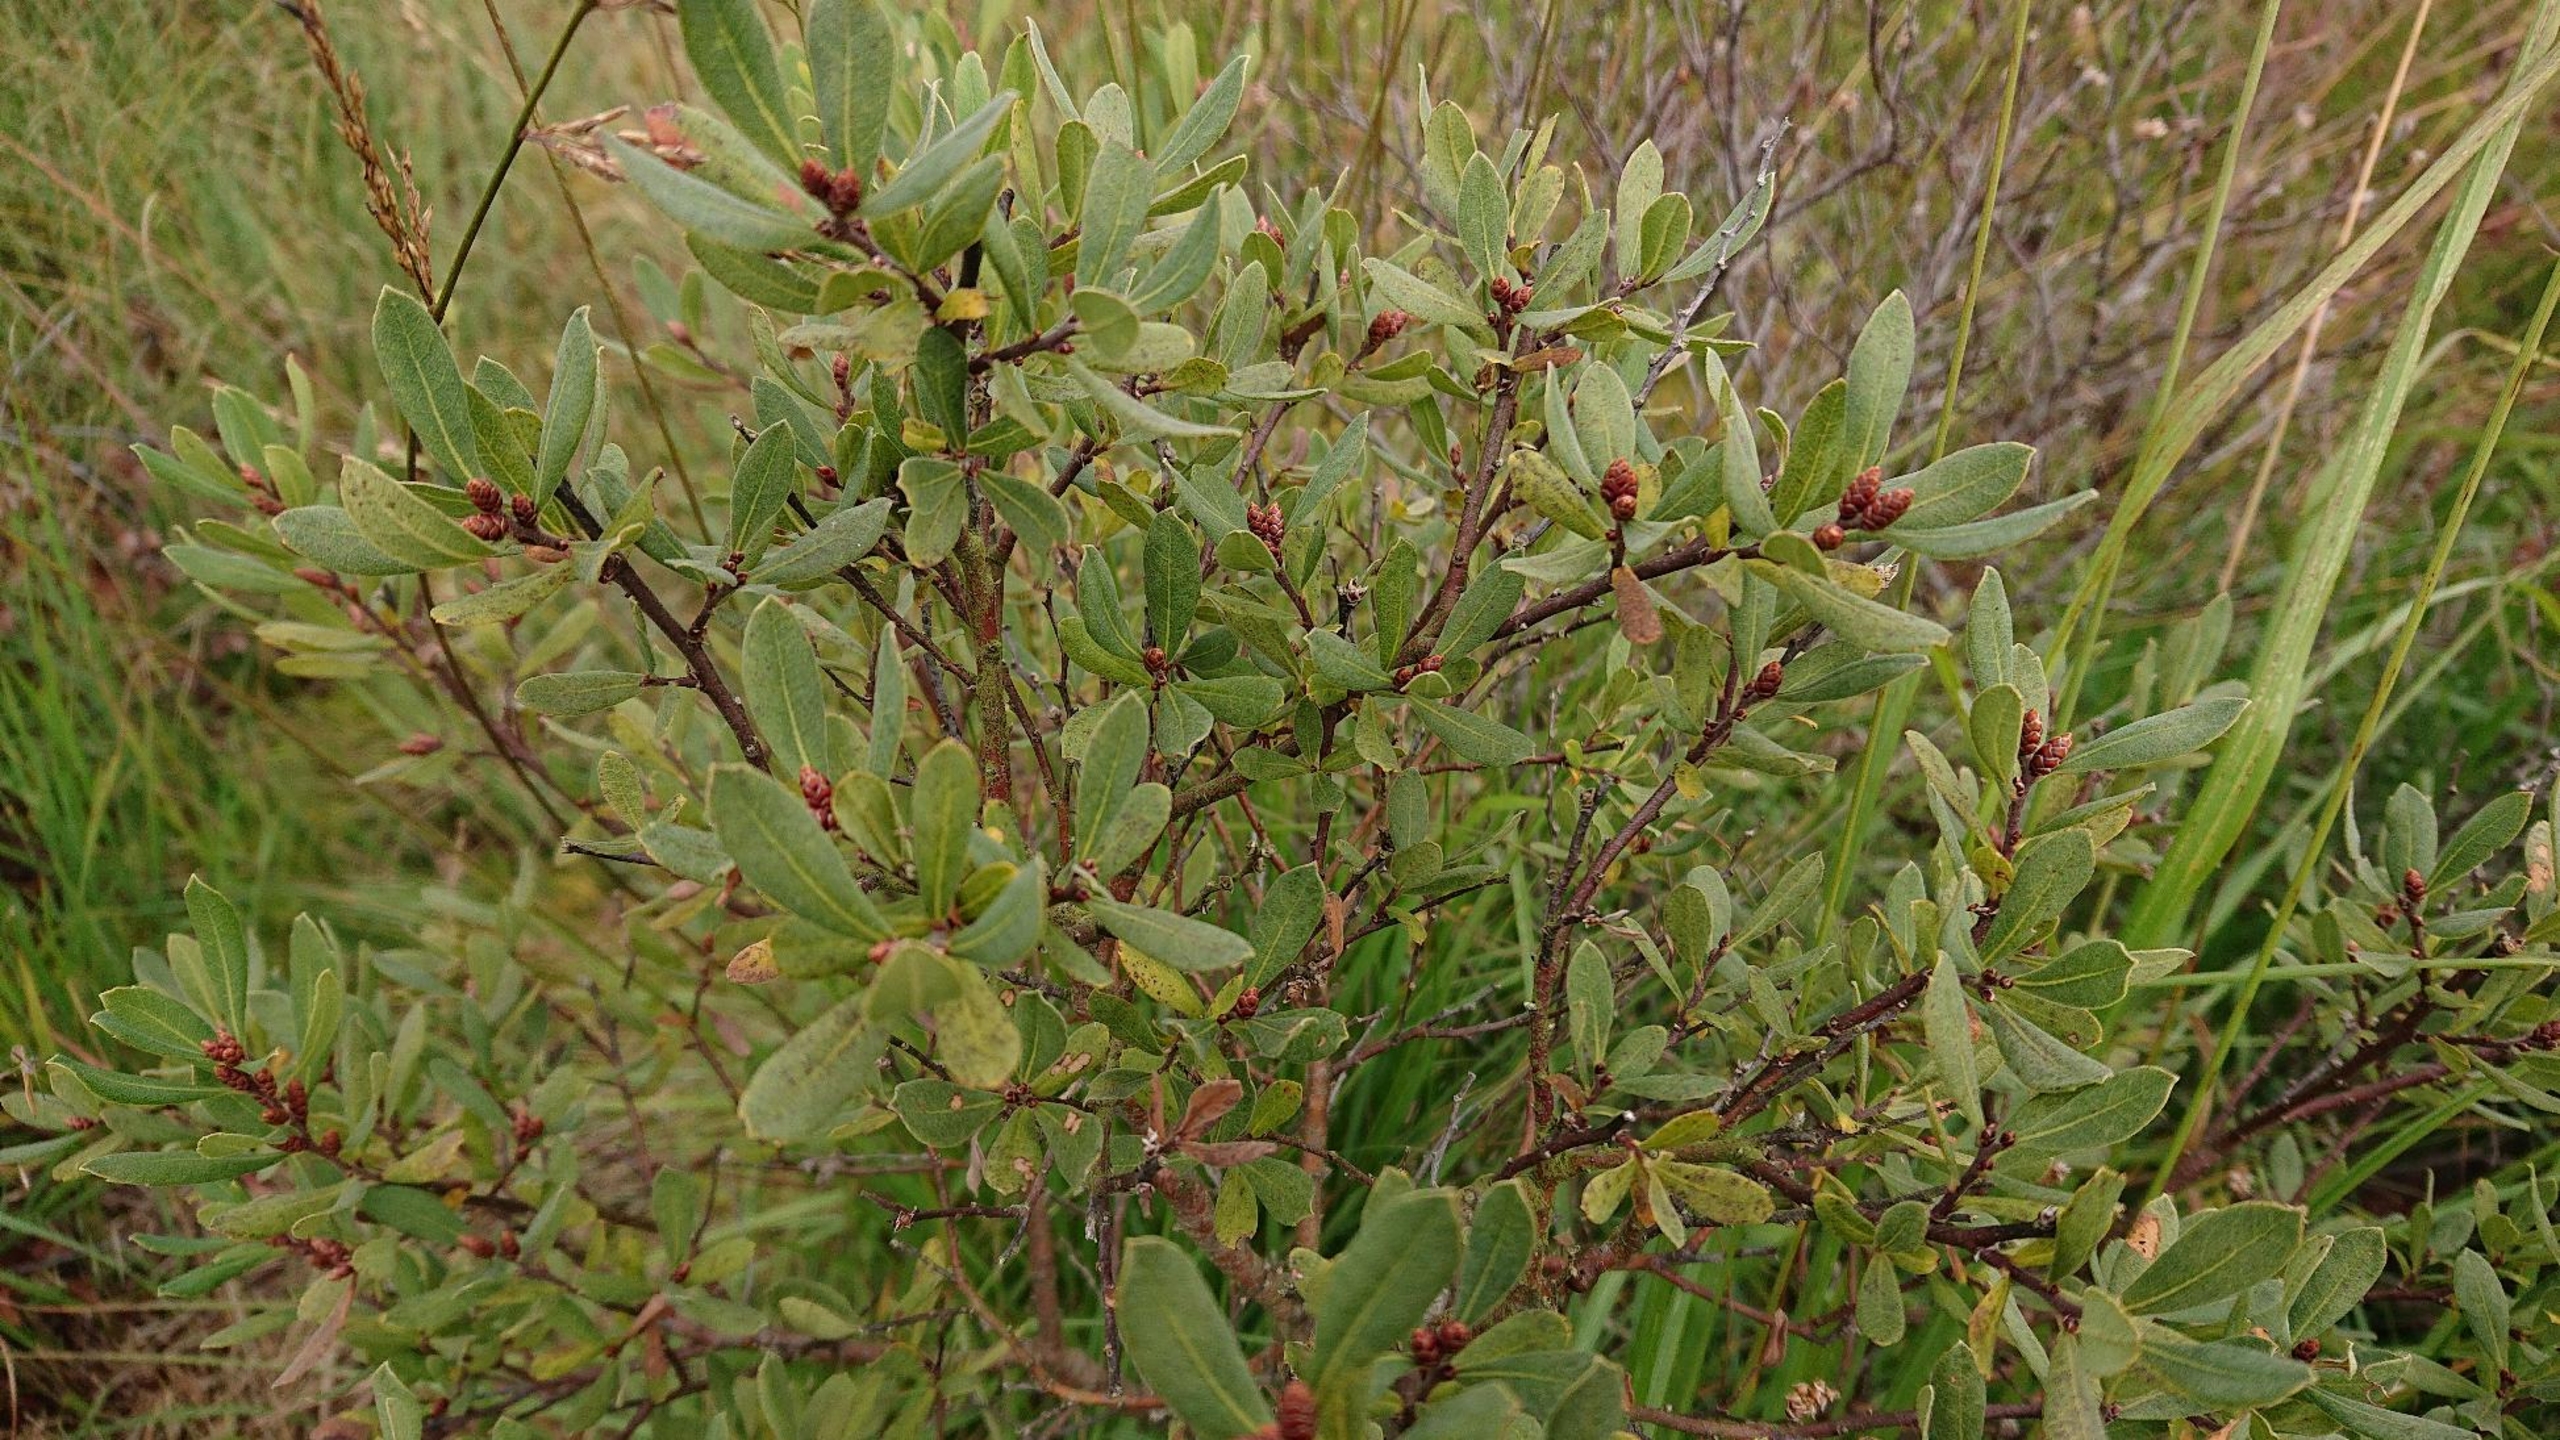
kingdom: Plantae
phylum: Tracheophyta
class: Magnoliopsida
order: Fagales
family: Myricaceae
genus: Myrica
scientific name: Myrica gale
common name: Pors
